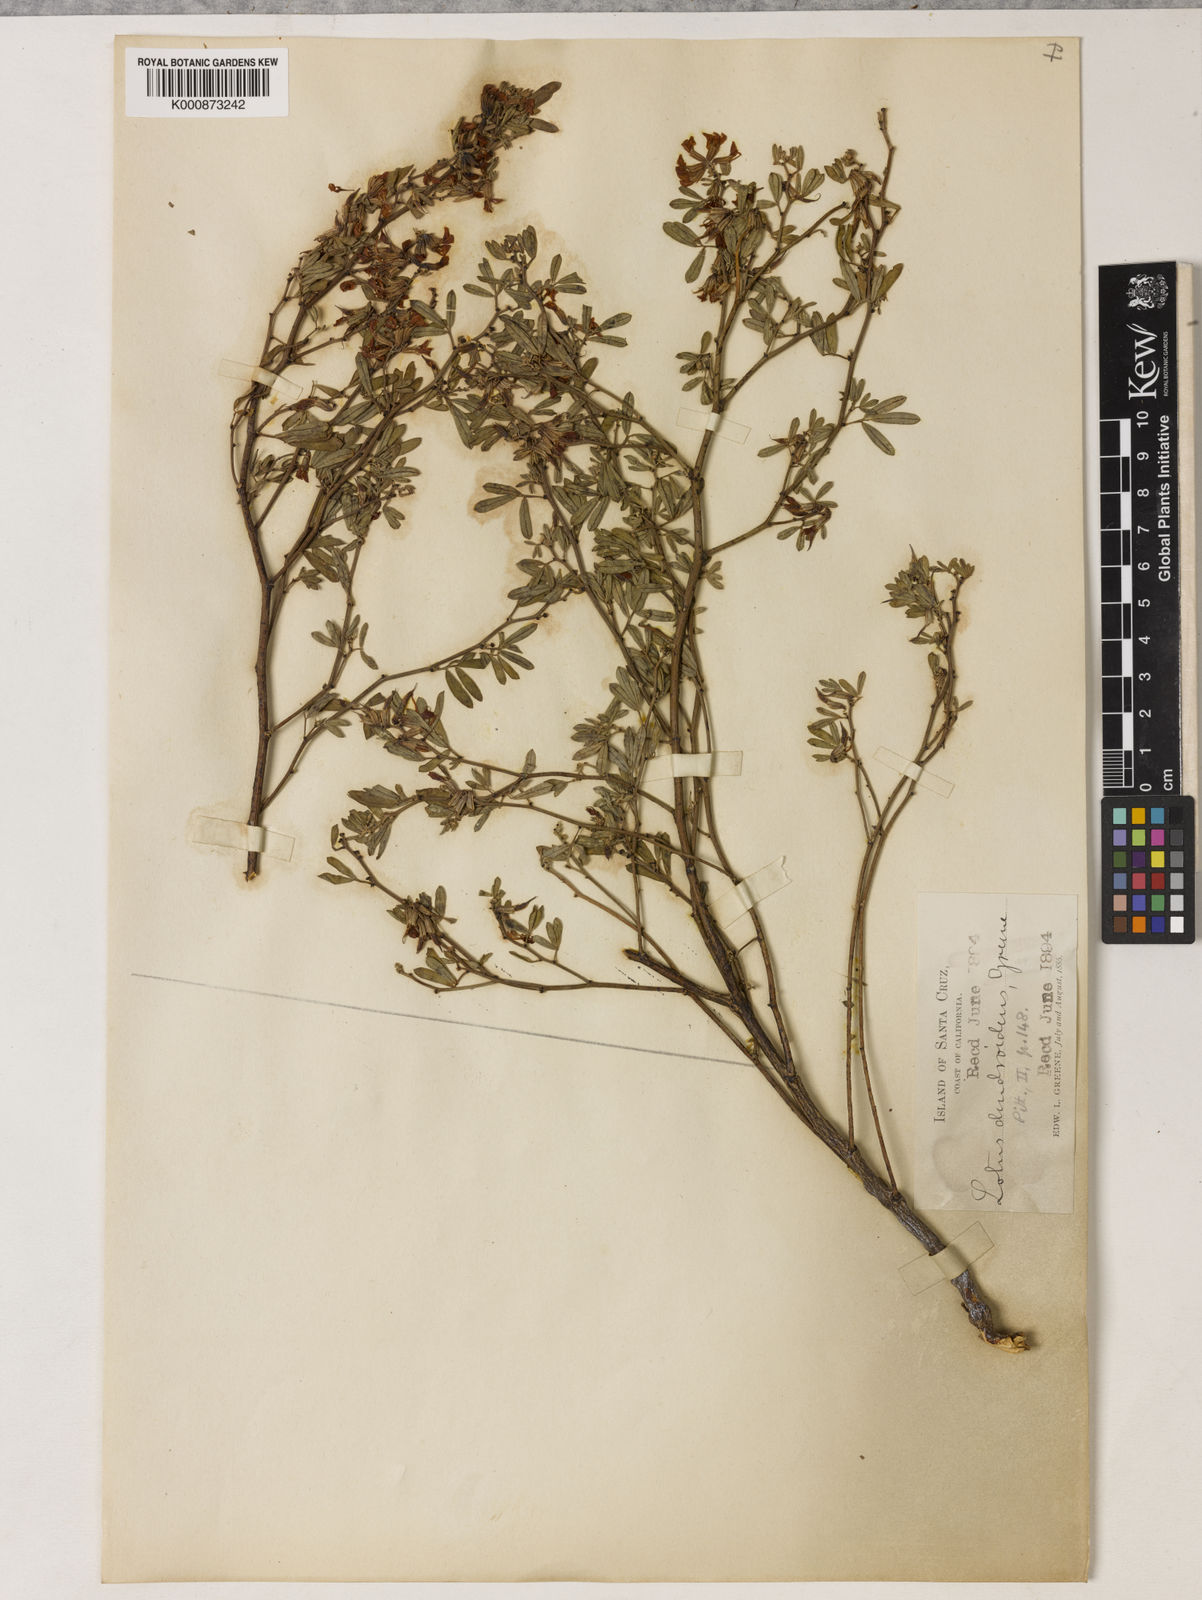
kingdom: Plantae
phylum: Tracheophyta
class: Magnoliopsida
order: Fabales
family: Fabaceae
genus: Acmispon
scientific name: Acmispon dendroideus
